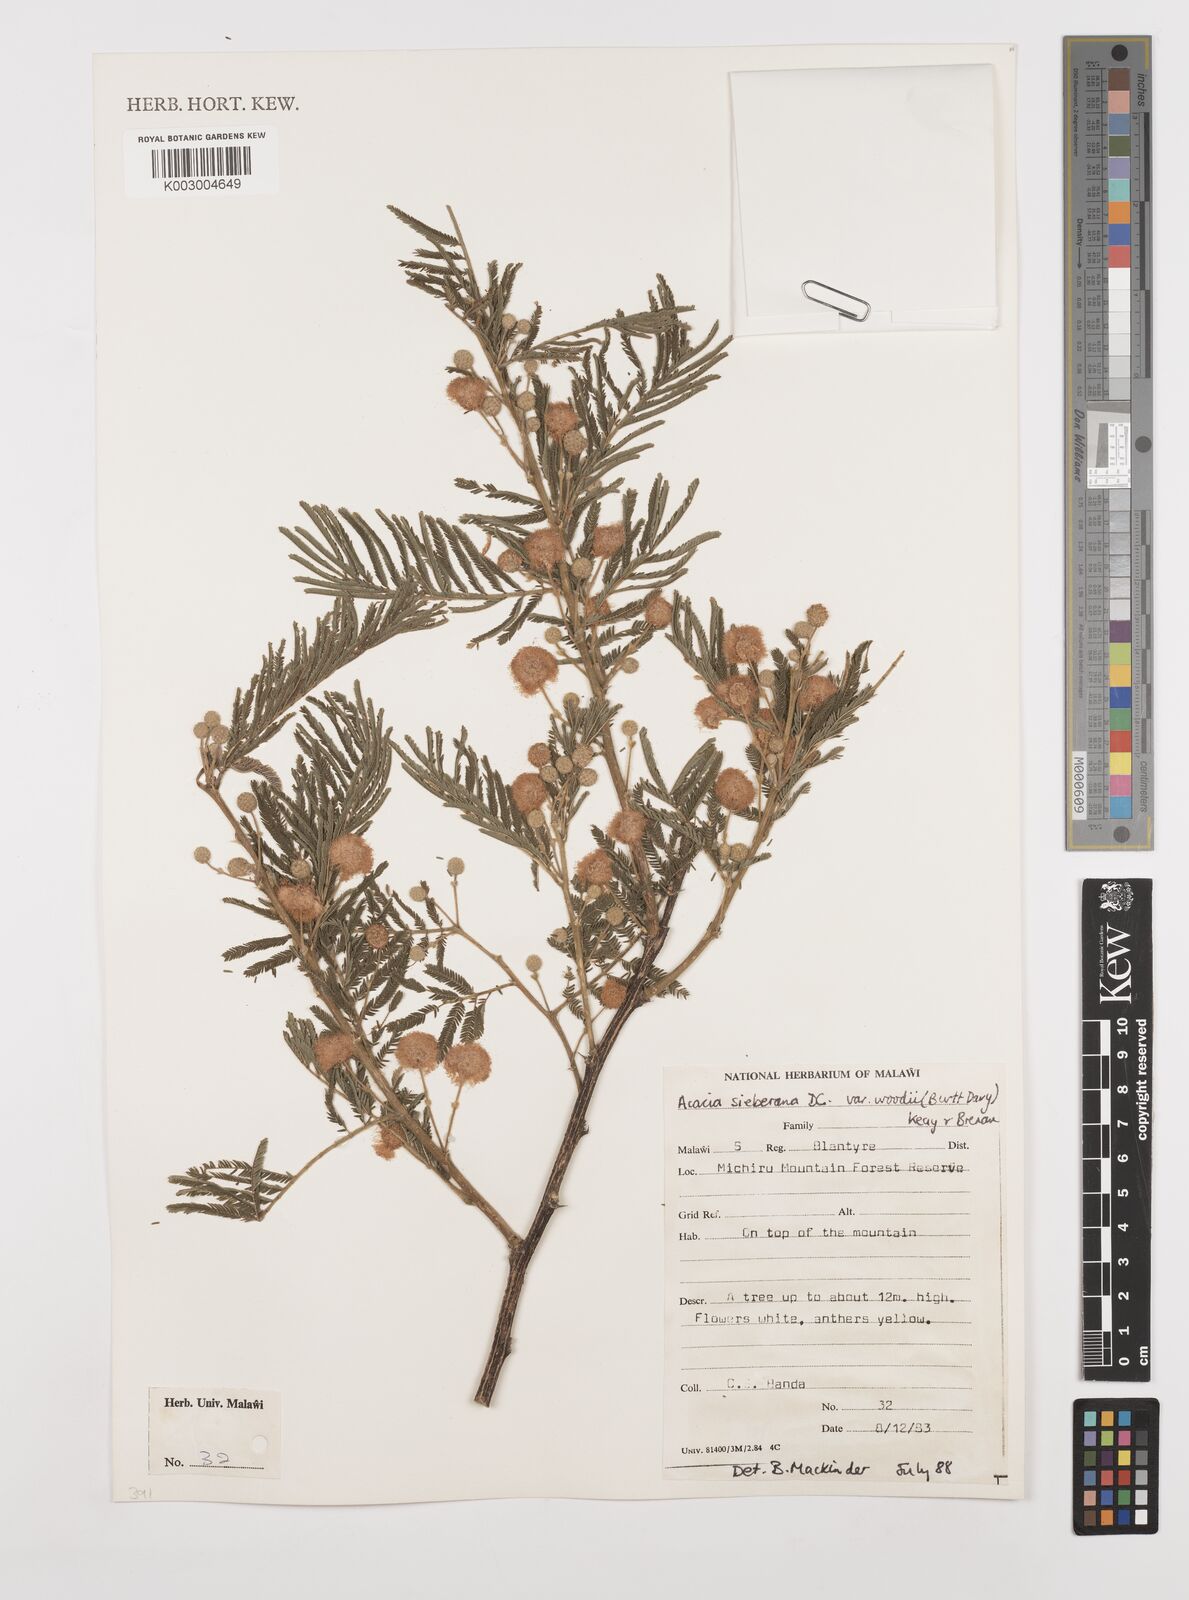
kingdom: Plantae
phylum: Tracheophyta
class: Magnoliopsida
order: Fabales
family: Fabaceae
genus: Vachellia
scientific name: Vachellia sieberiana
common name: Flat-topped thorn
